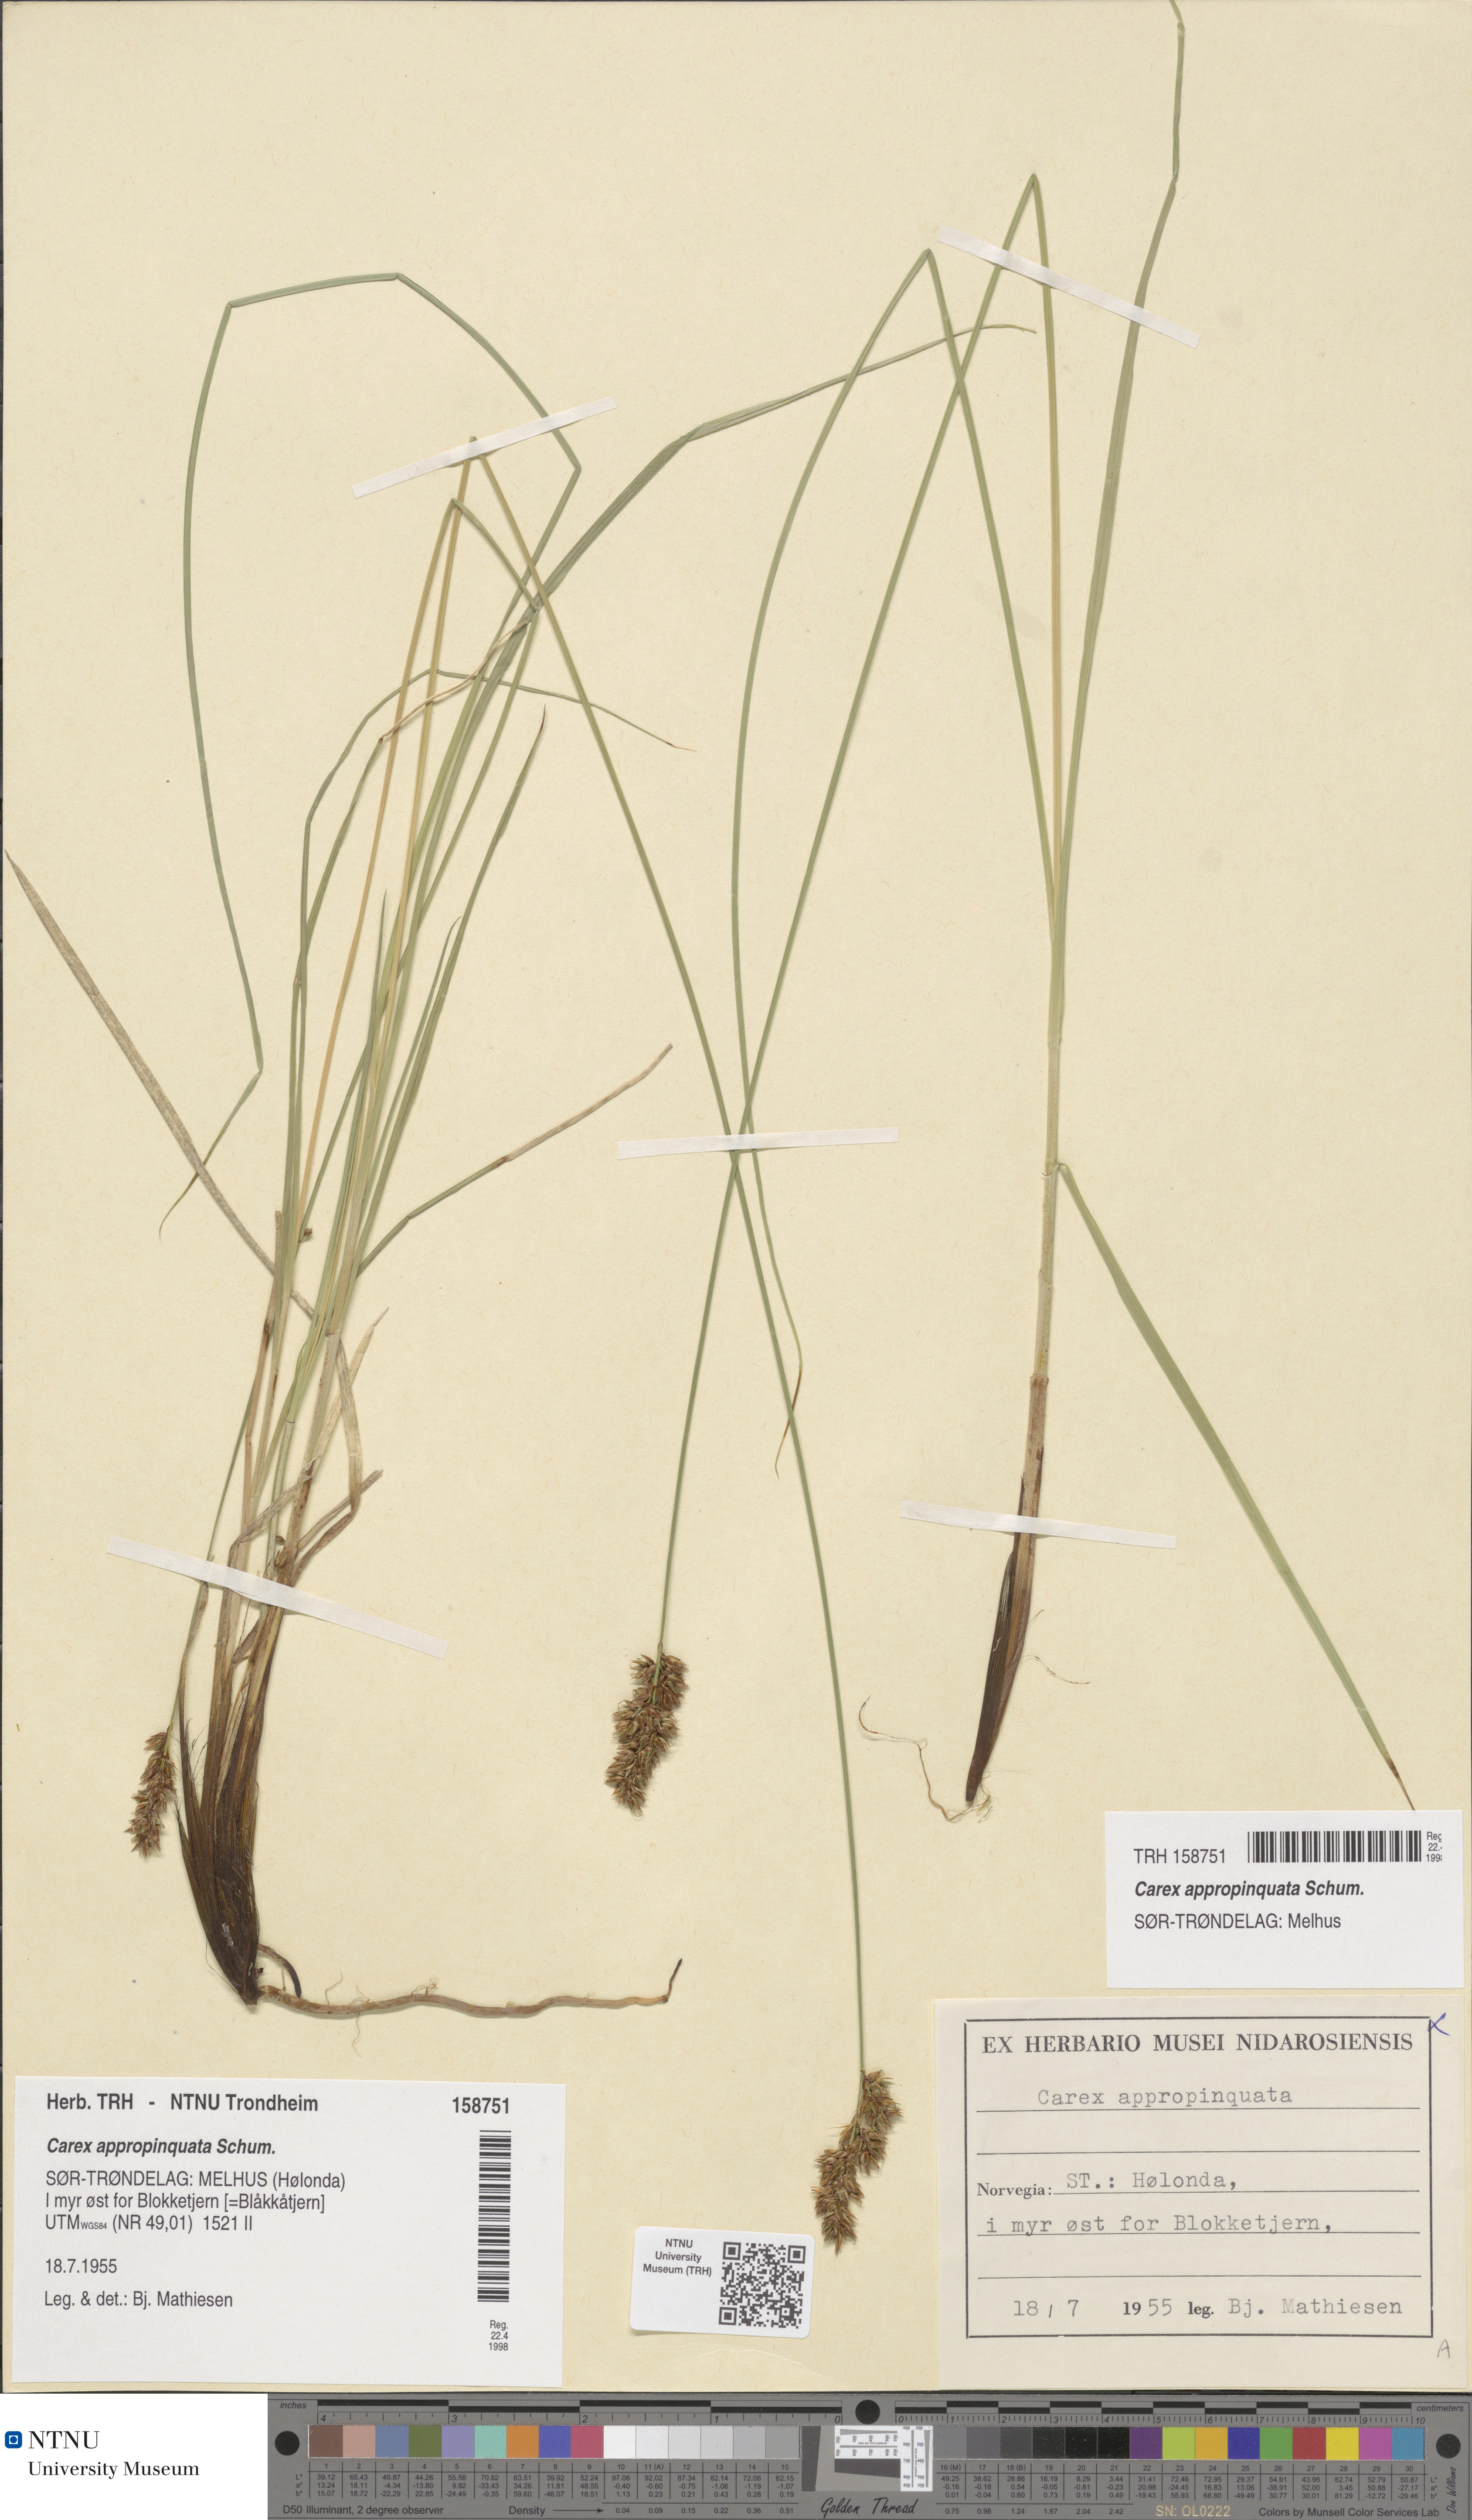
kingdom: Plantae
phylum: Tracheophyta
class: Liliopsida
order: Poales
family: Cyperaceae
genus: Carex
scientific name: Carex appropinquata
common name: Fibrous tussock-sedge
